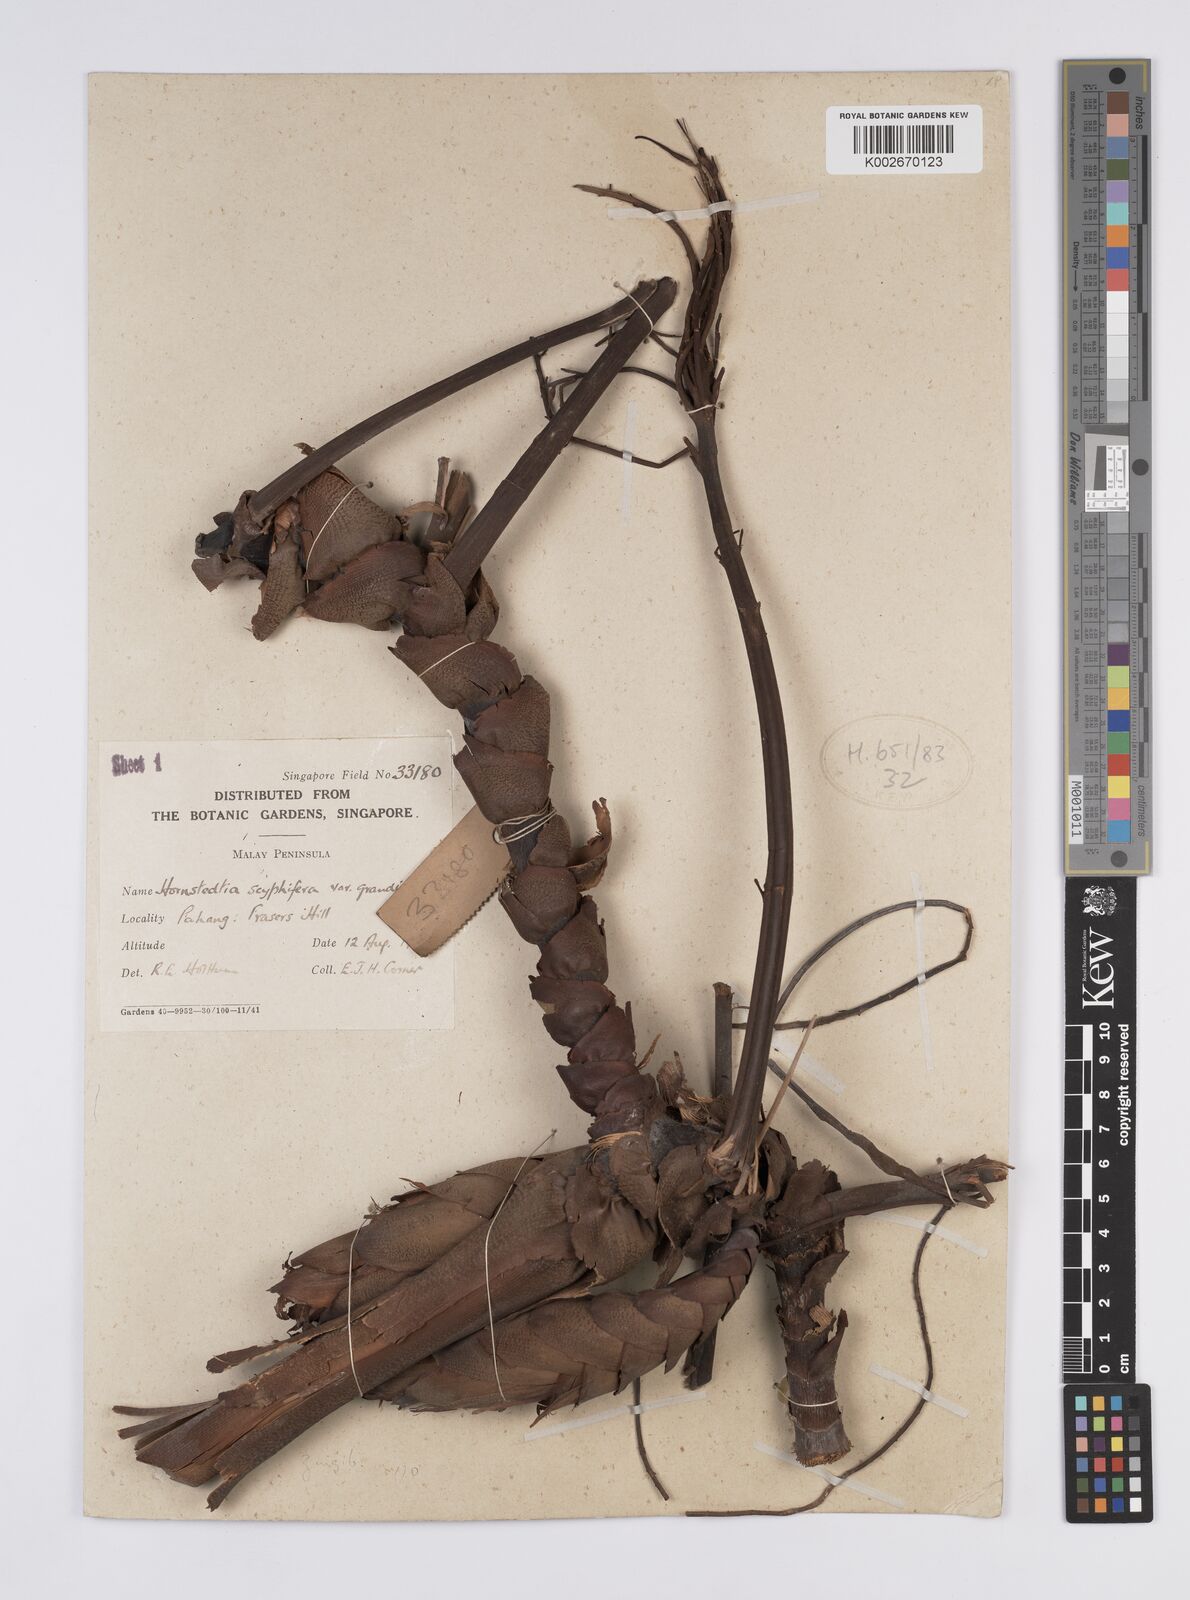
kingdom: Plantae
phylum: Tracheophyta
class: Liliopsida
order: Zingiberales
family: Zingiberaceae
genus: Hornstedtia
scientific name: Hornstedtia scyphifera
